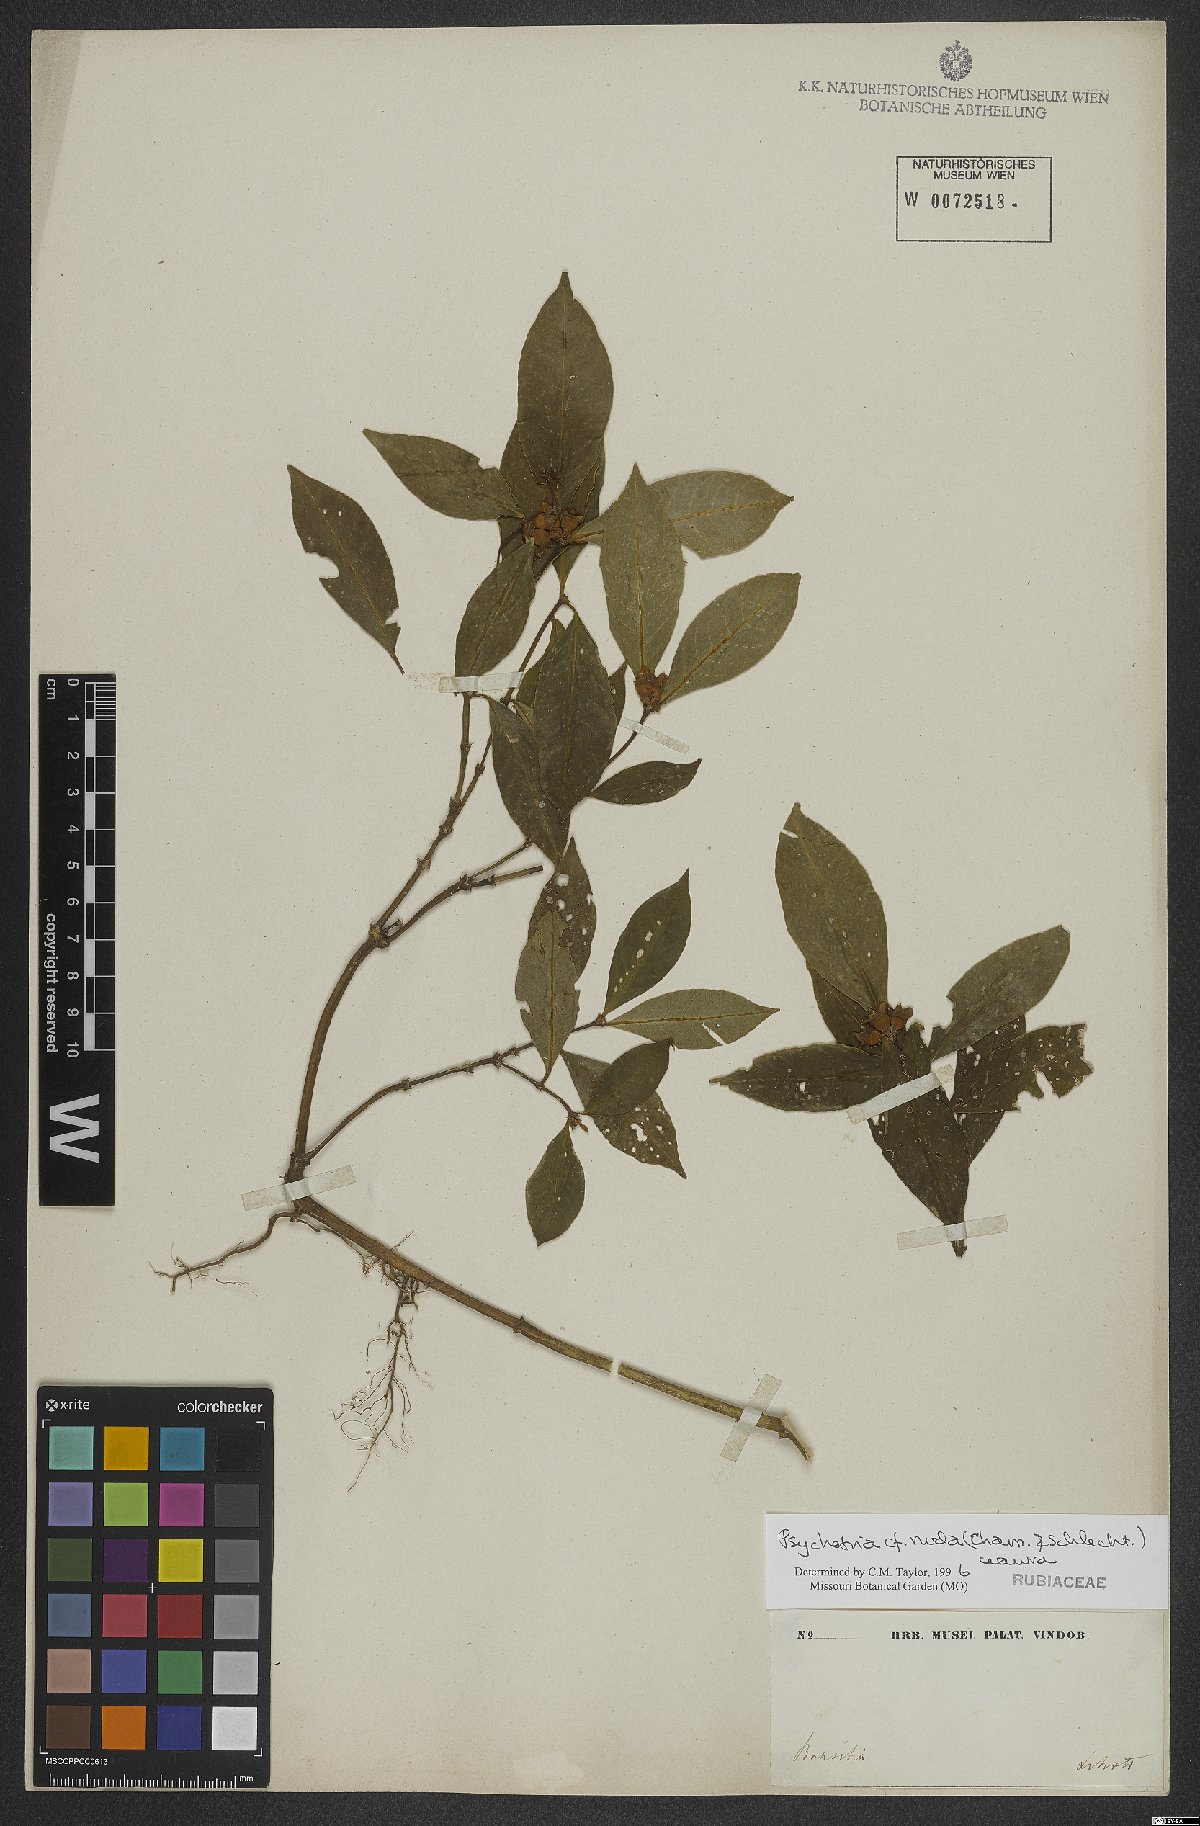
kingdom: Plantae
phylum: Tracheophyta
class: Magnoliopsida
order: Gentianales
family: Rubiaceae
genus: Psychotria
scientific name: Psychotria nuda
